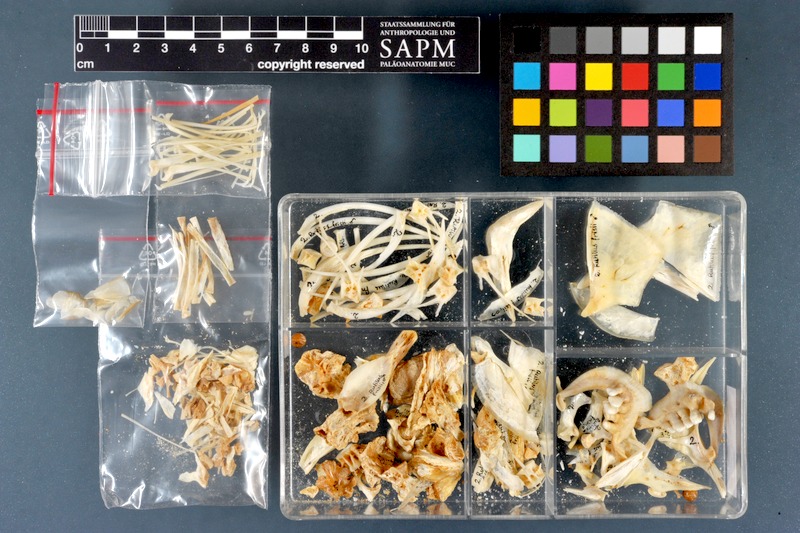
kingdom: Animalia
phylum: Chordata
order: Cypriniformes
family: Cyprinidae
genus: Rutilus
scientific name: Rutilus meidingeri
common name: Perlfisch
